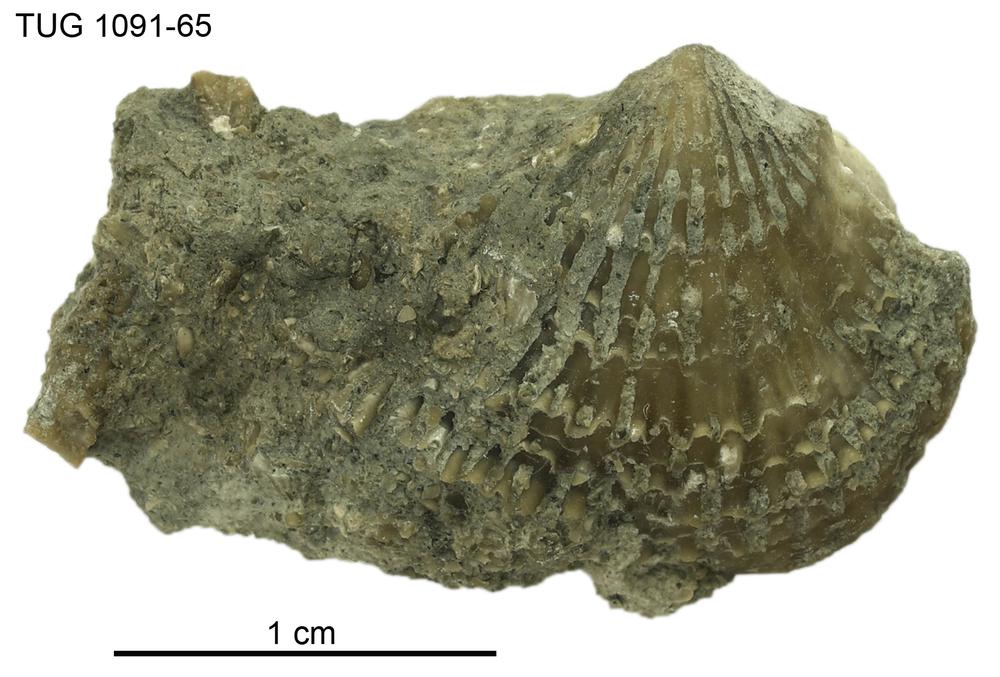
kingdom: Animalia
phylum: Brachiopoda
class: Rhynchonellata
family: Atrypidae
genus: Atrypa
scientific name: Atrypa
